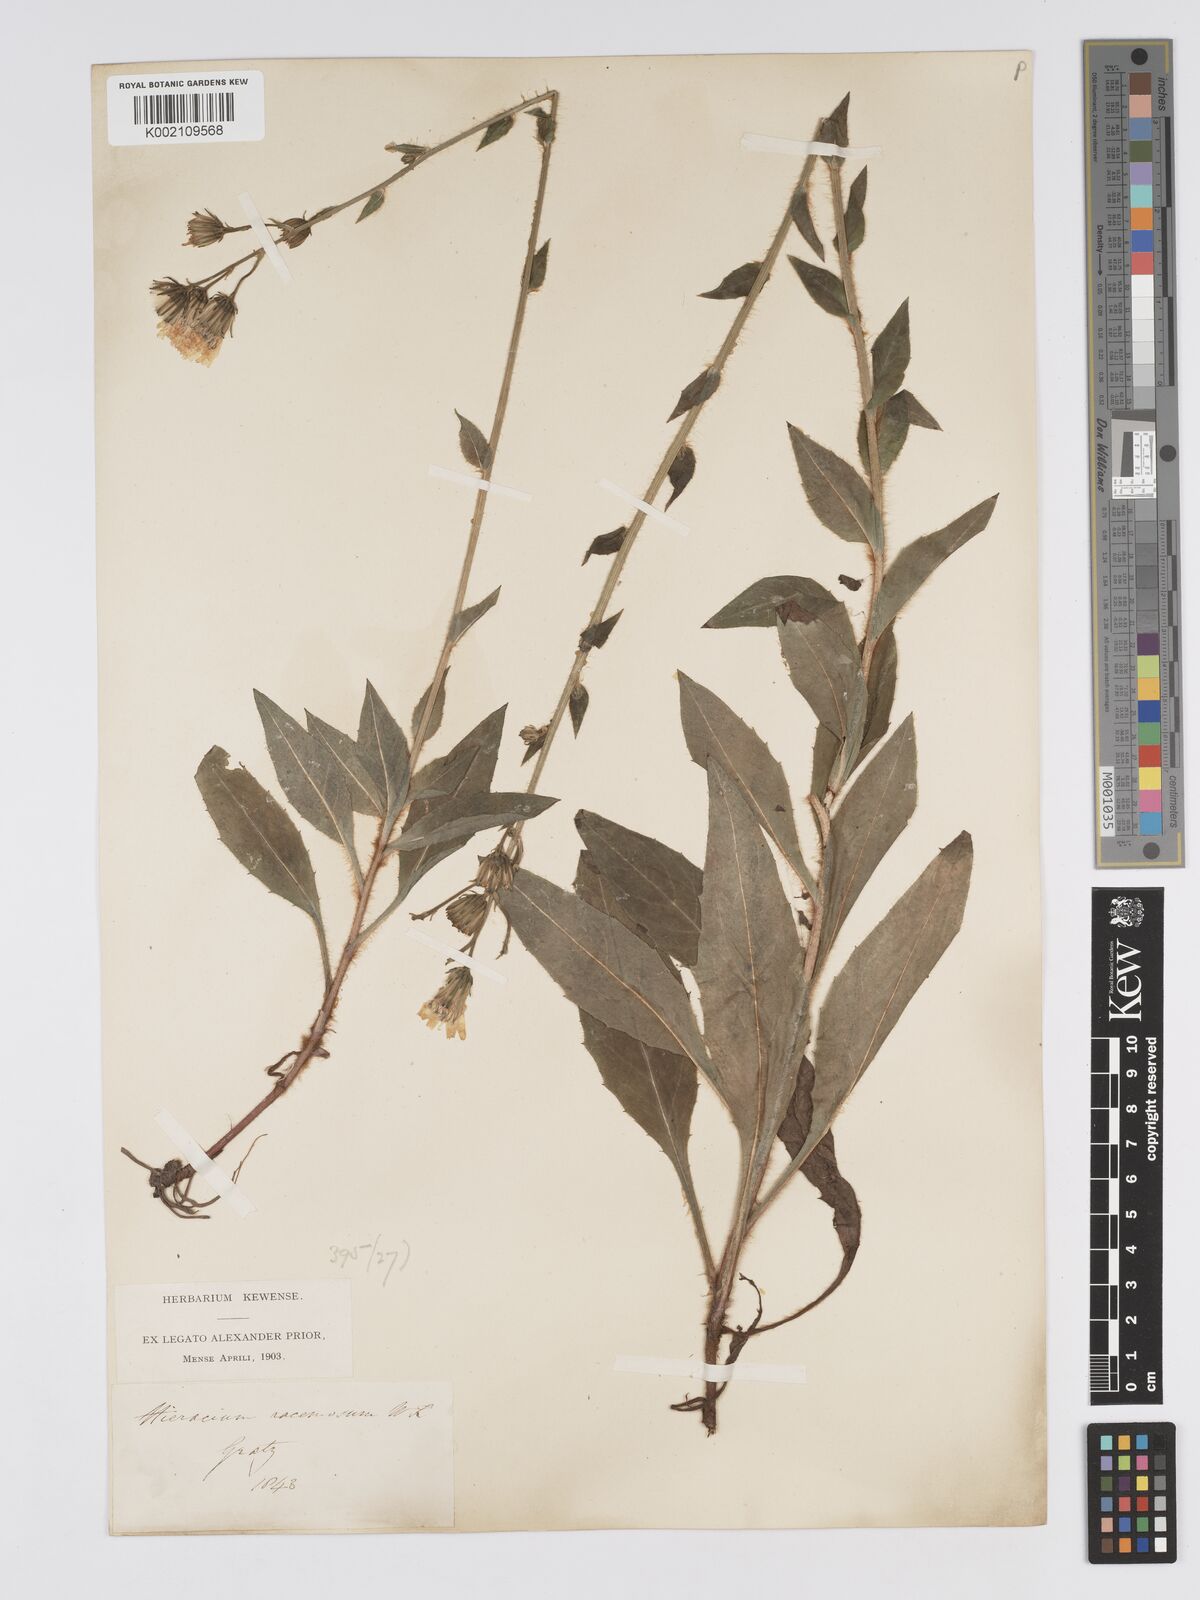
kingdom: Plantae
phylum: Tracheophyta
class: Magnoliopsida
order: Asterales
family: Asteraceae
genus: Hieracium
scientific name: Hieracium racemosum
